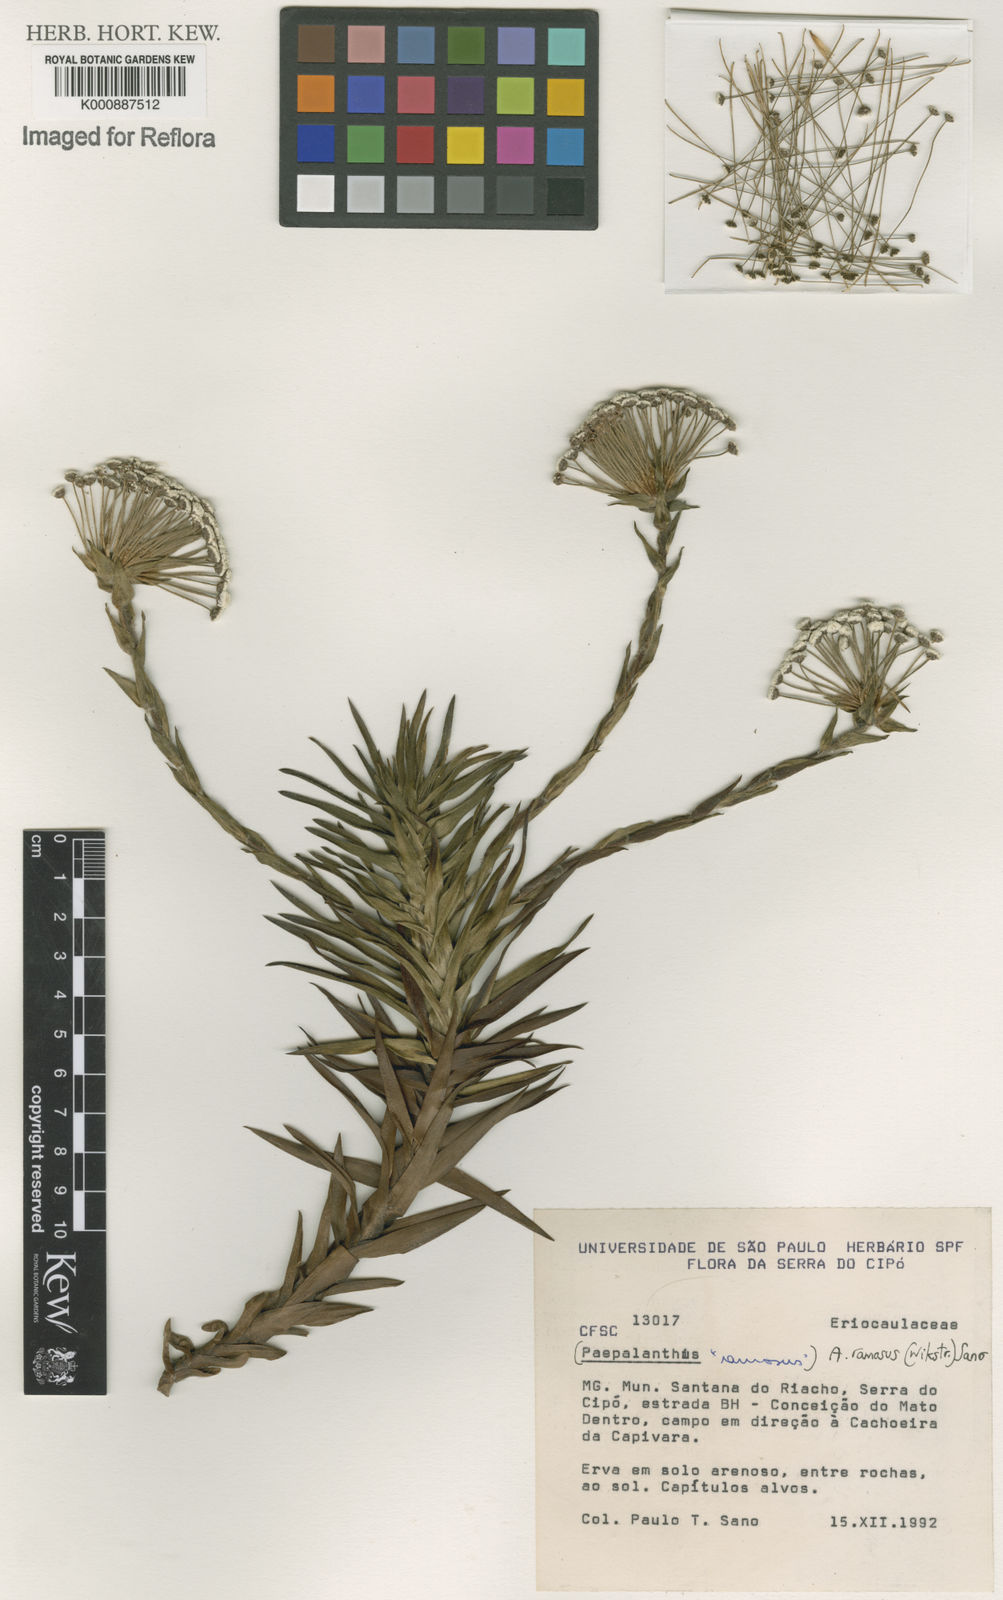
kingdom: Plantae
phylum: Tracheophyta
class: Liliopsida
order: Poales
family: Eriocaulaceae
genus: Paepalanthus
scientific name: Paepalanthus ramosus
